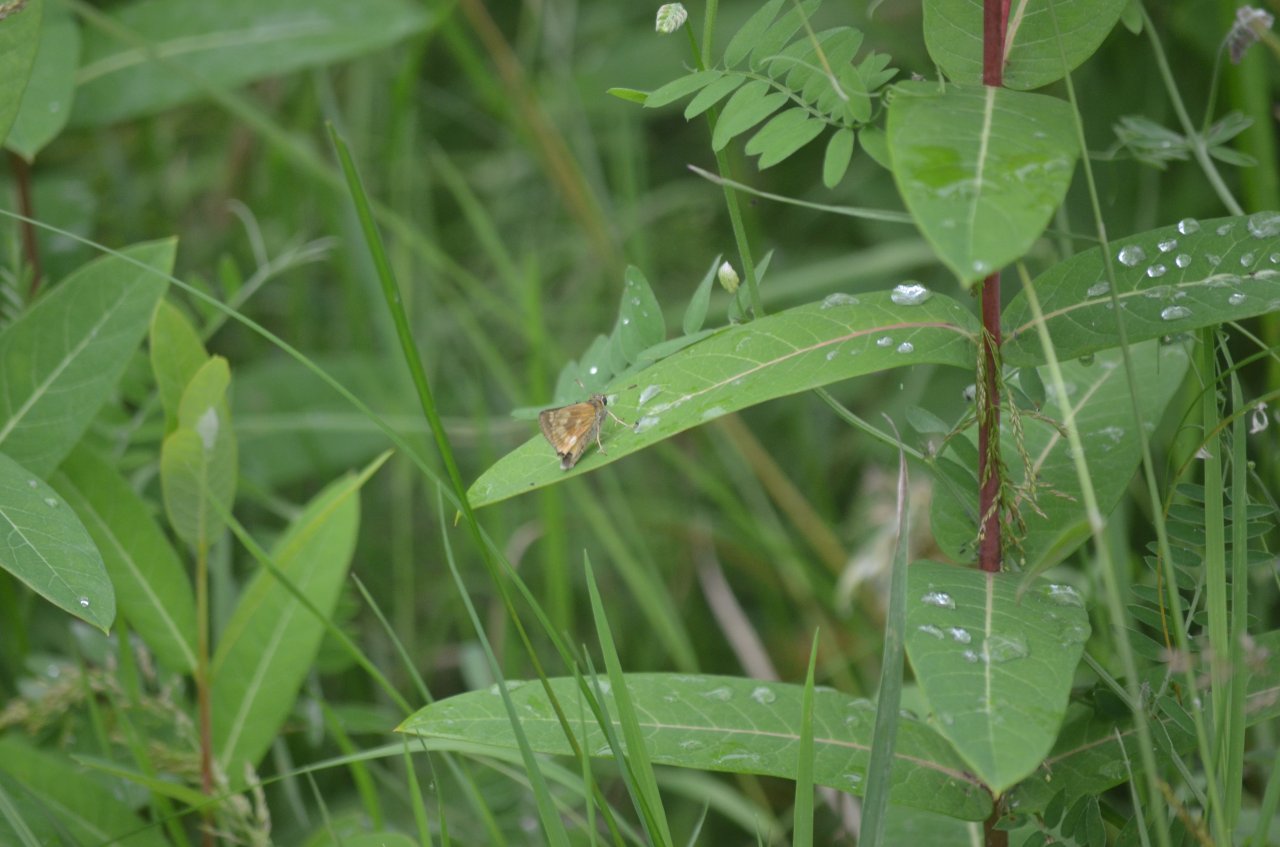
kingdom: Animalia
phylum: Arthropoda
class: Insecta
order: Lepidoptera
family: Hesperiidae
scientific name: Hesperiidae
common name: Skippers
